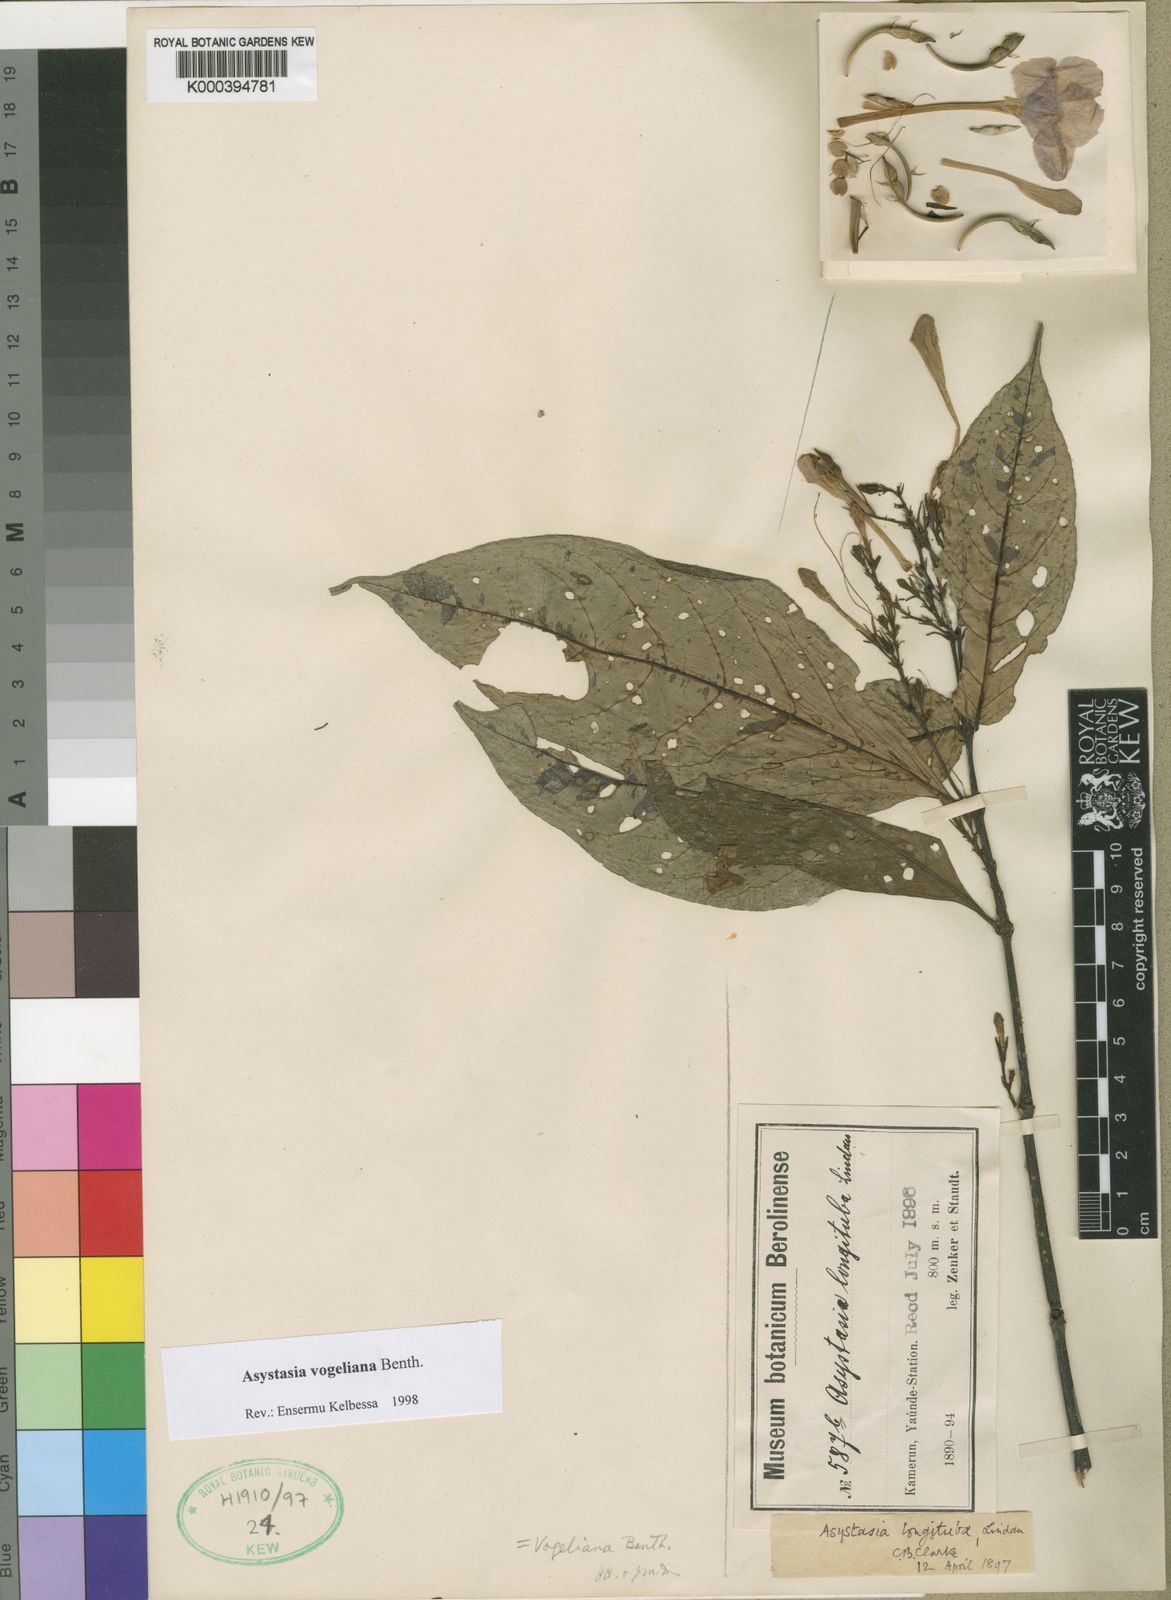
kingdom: Plantae
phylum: Tracheophyta
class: Magnoliopsida
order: Lamiales
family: Acanthaceae
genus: Asystasia
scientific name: Asystasia vogeliana
